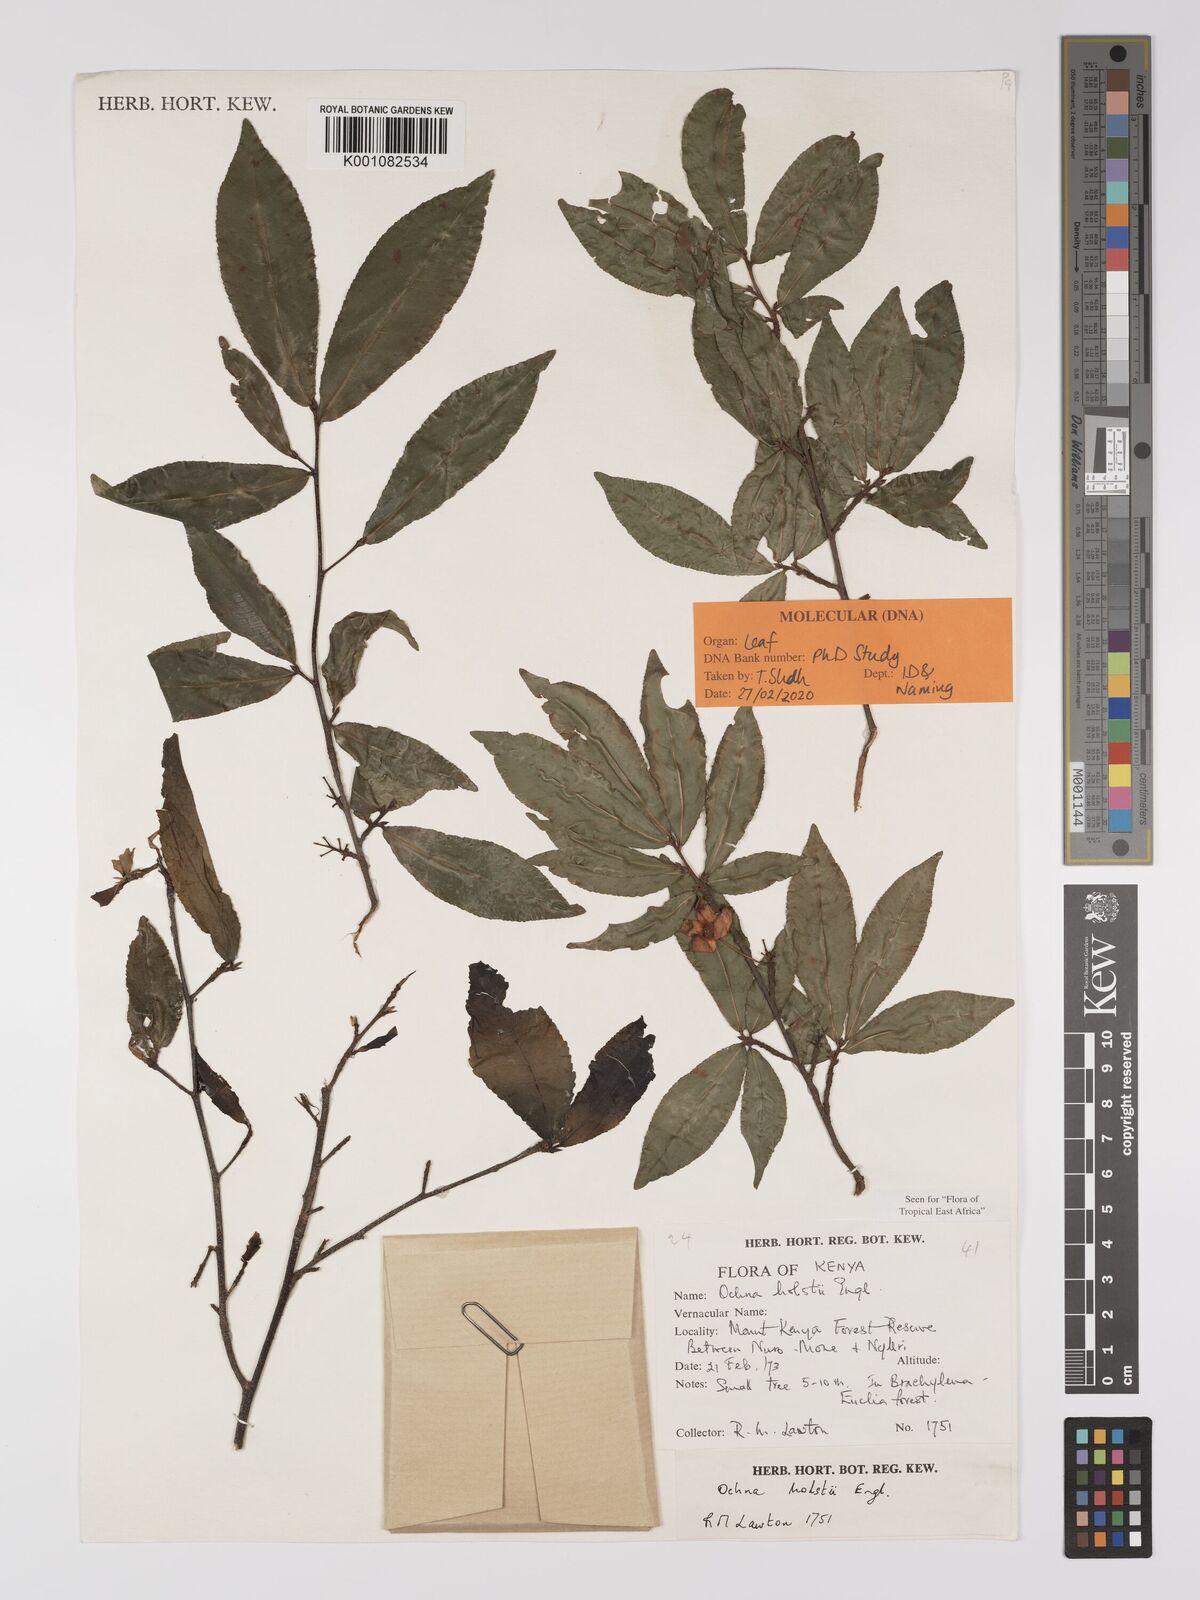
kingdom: Plantae
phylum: Tracheophyta
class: Magnoliopsida
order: Malpighiales
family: Ochnaceae
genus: Ochna
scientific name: Ochna holstii
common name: Red ironwood
